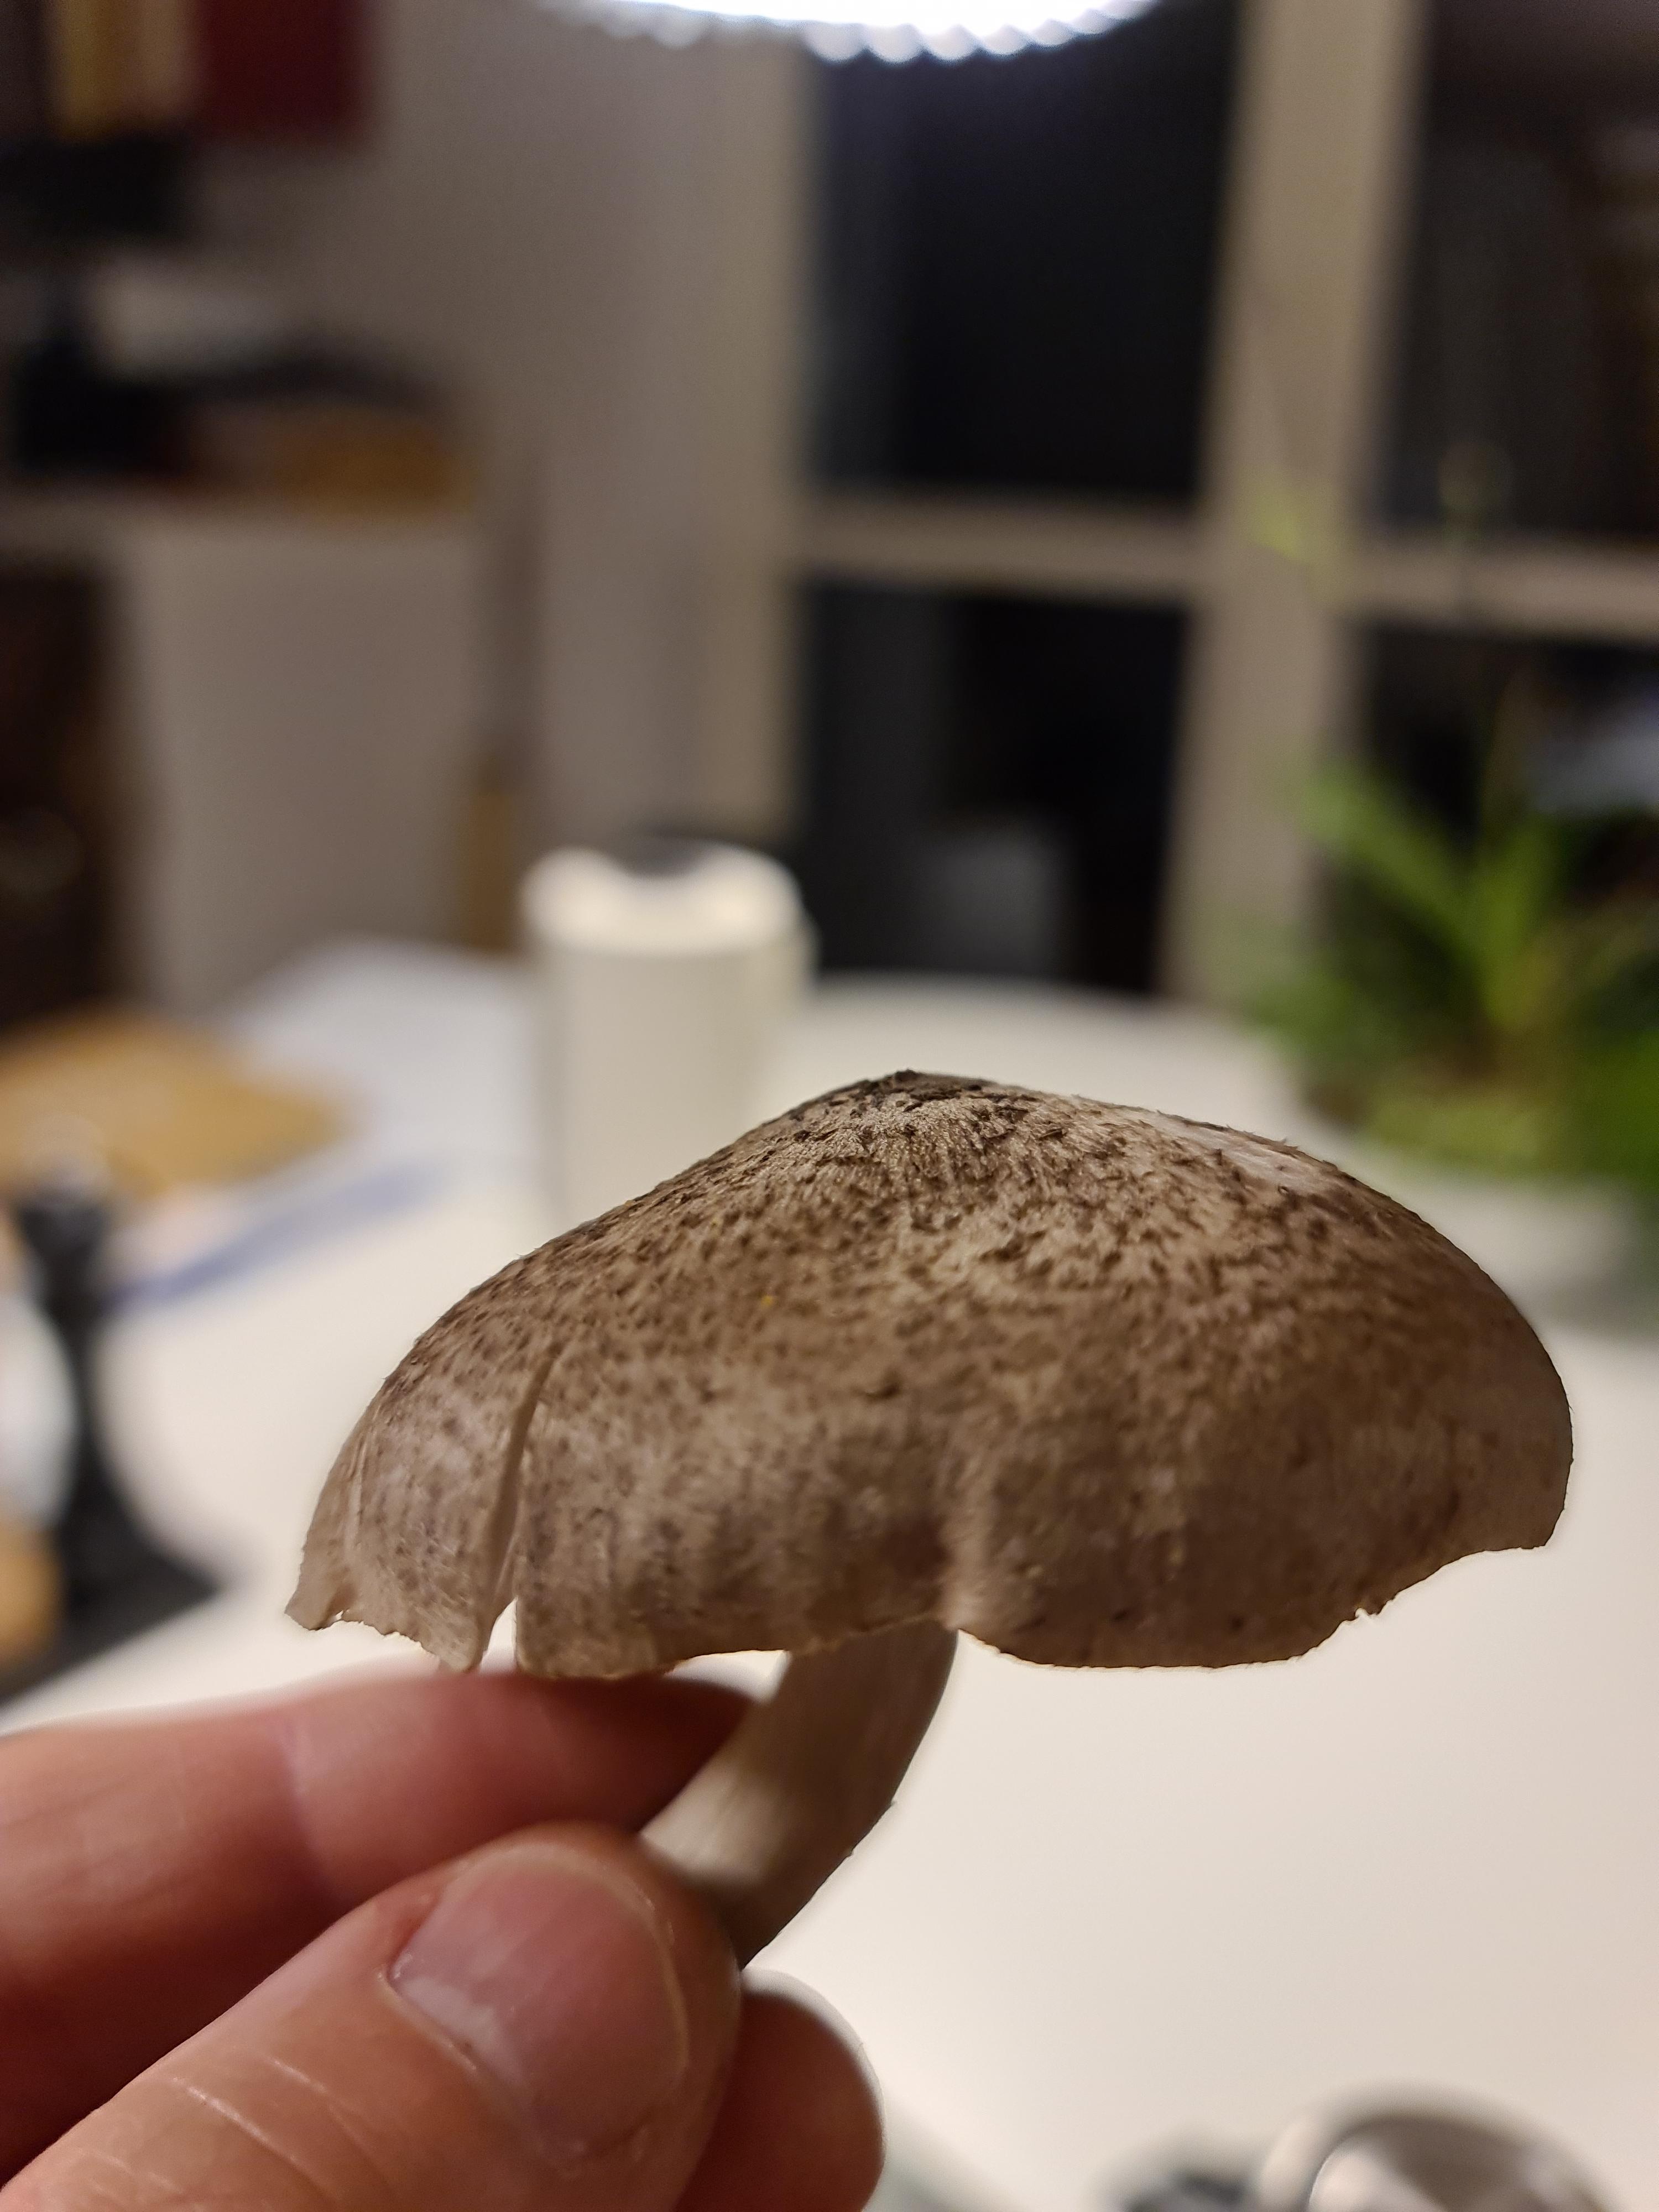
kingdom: Fungi
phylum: Basidiomycota
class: Agaricomycetes
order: Agaricales
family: Tricholomataceae
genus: Tricholoma
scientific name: Tricholoma
